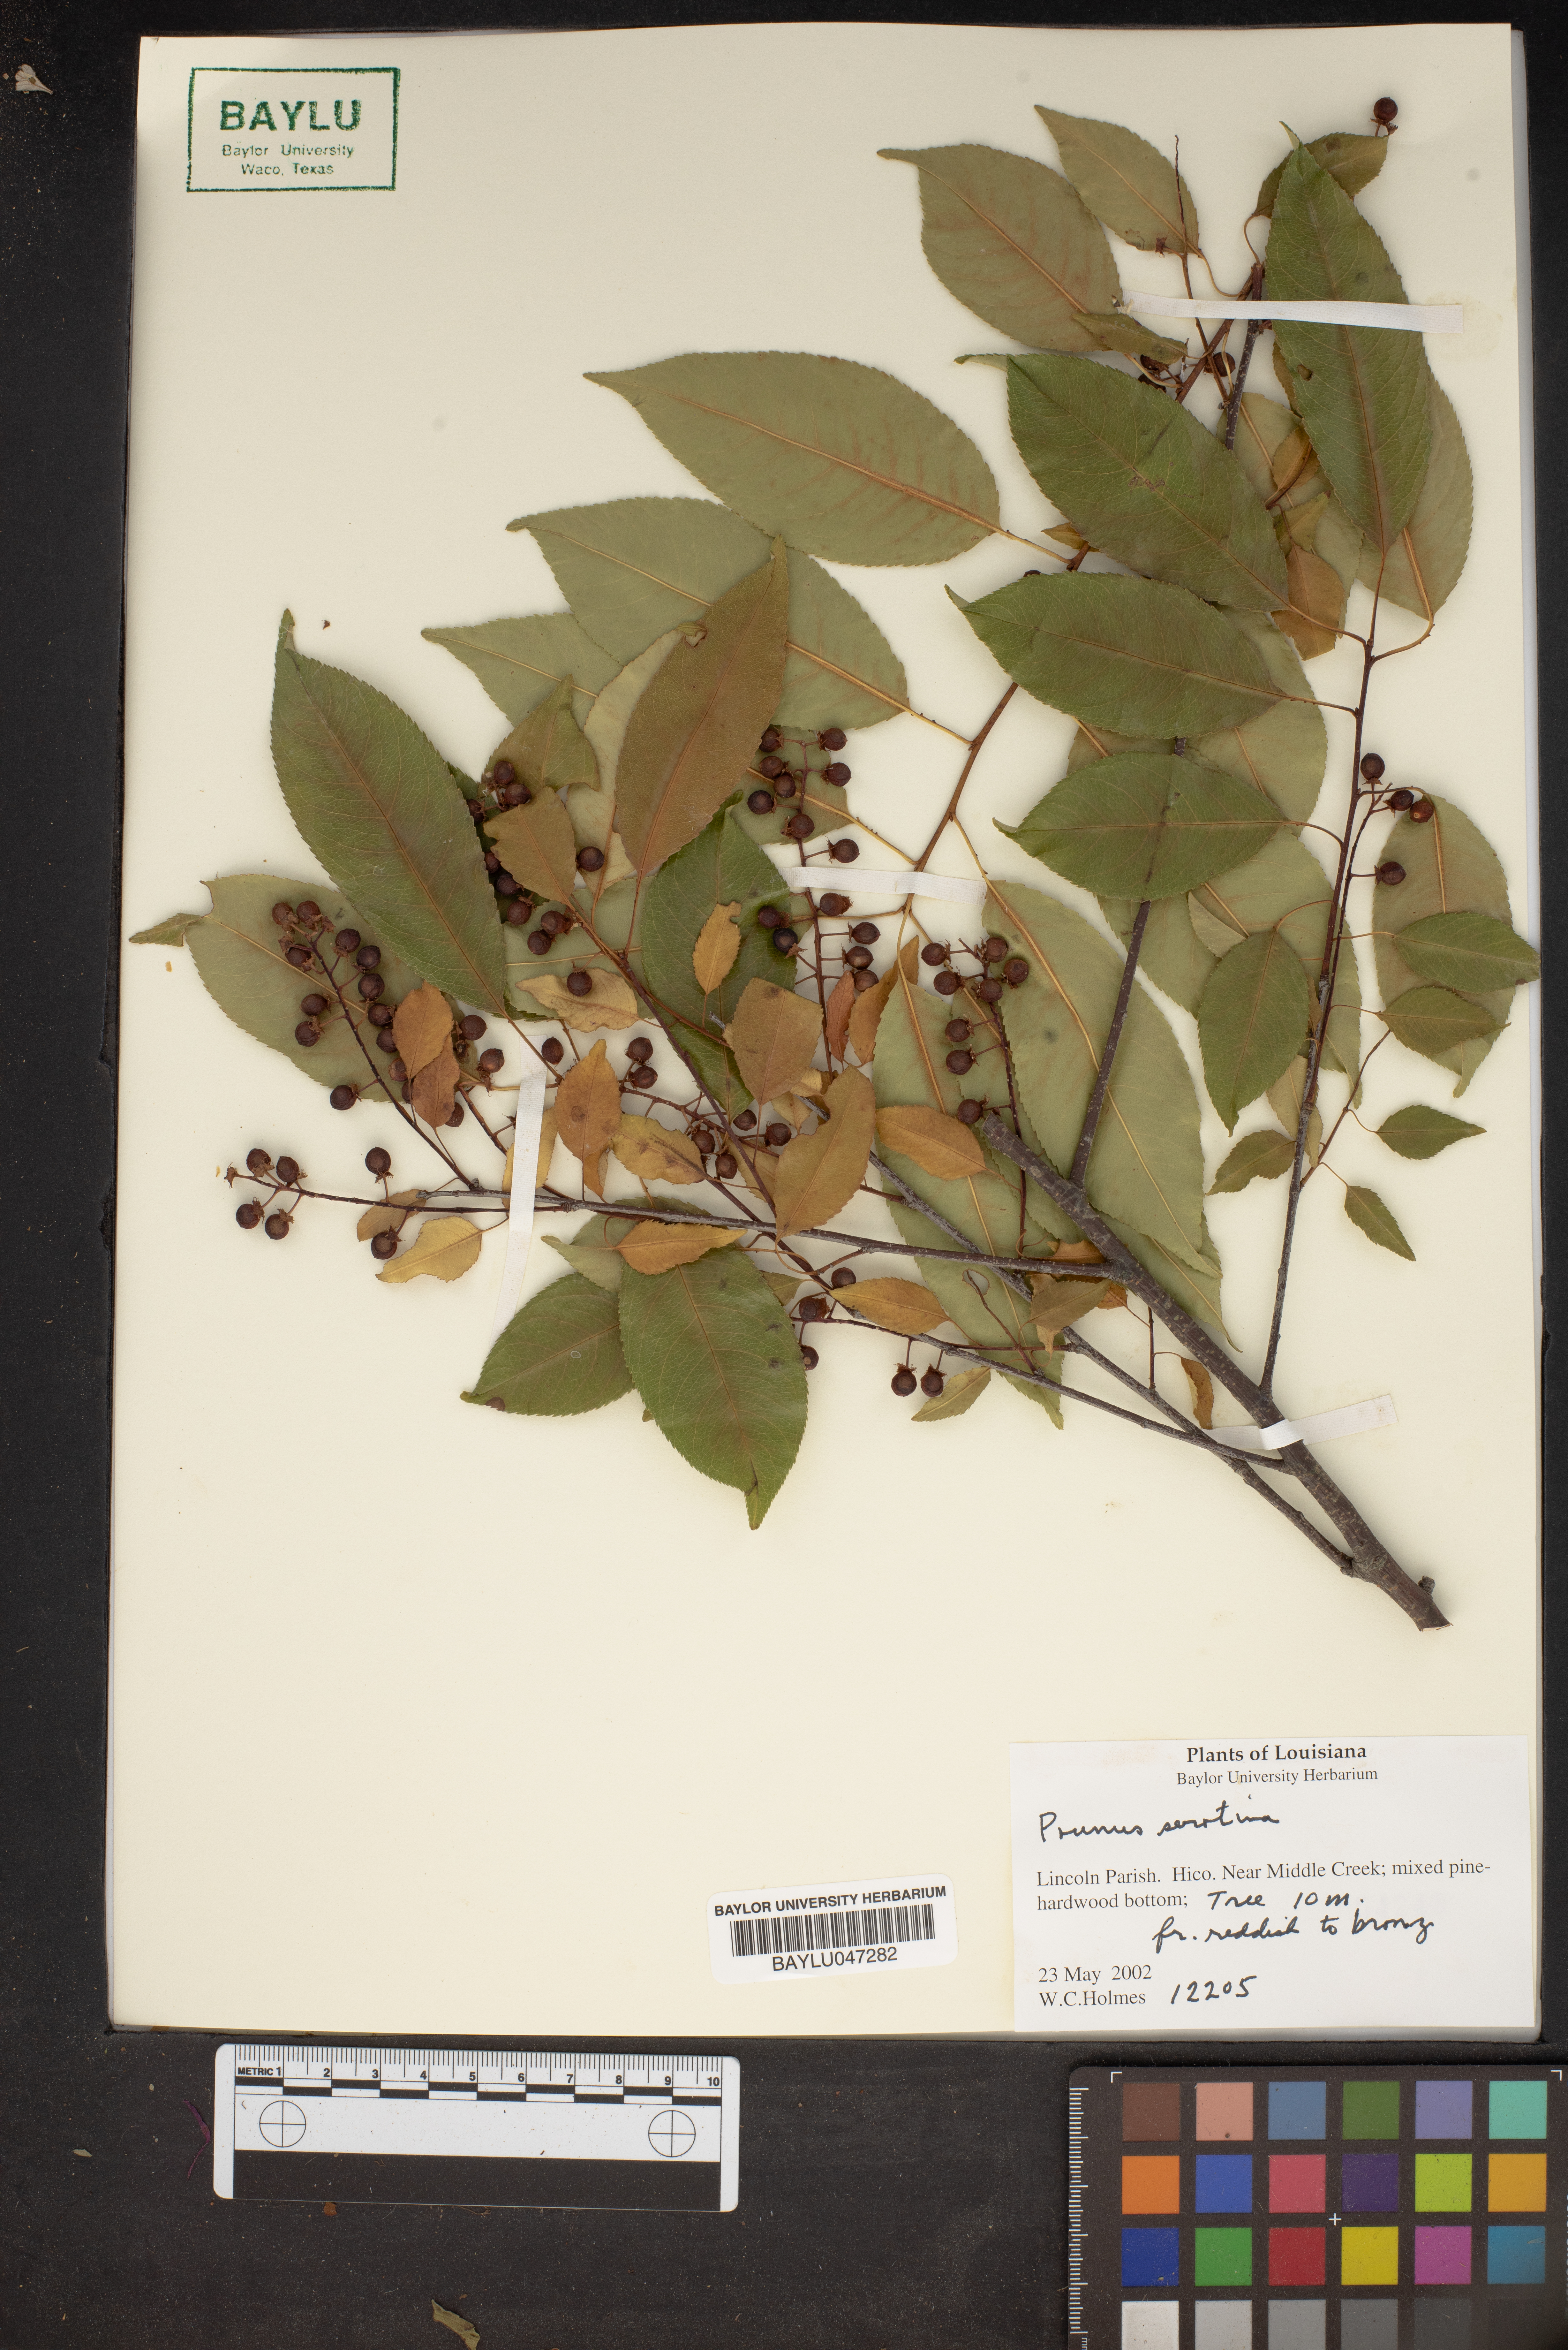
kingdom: Plantae
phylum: Tracheophyta
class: Magnoliopsida
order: Rosales
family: Rosaceae
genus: Prunus
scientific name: Prunus serotina
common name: Black cherry
